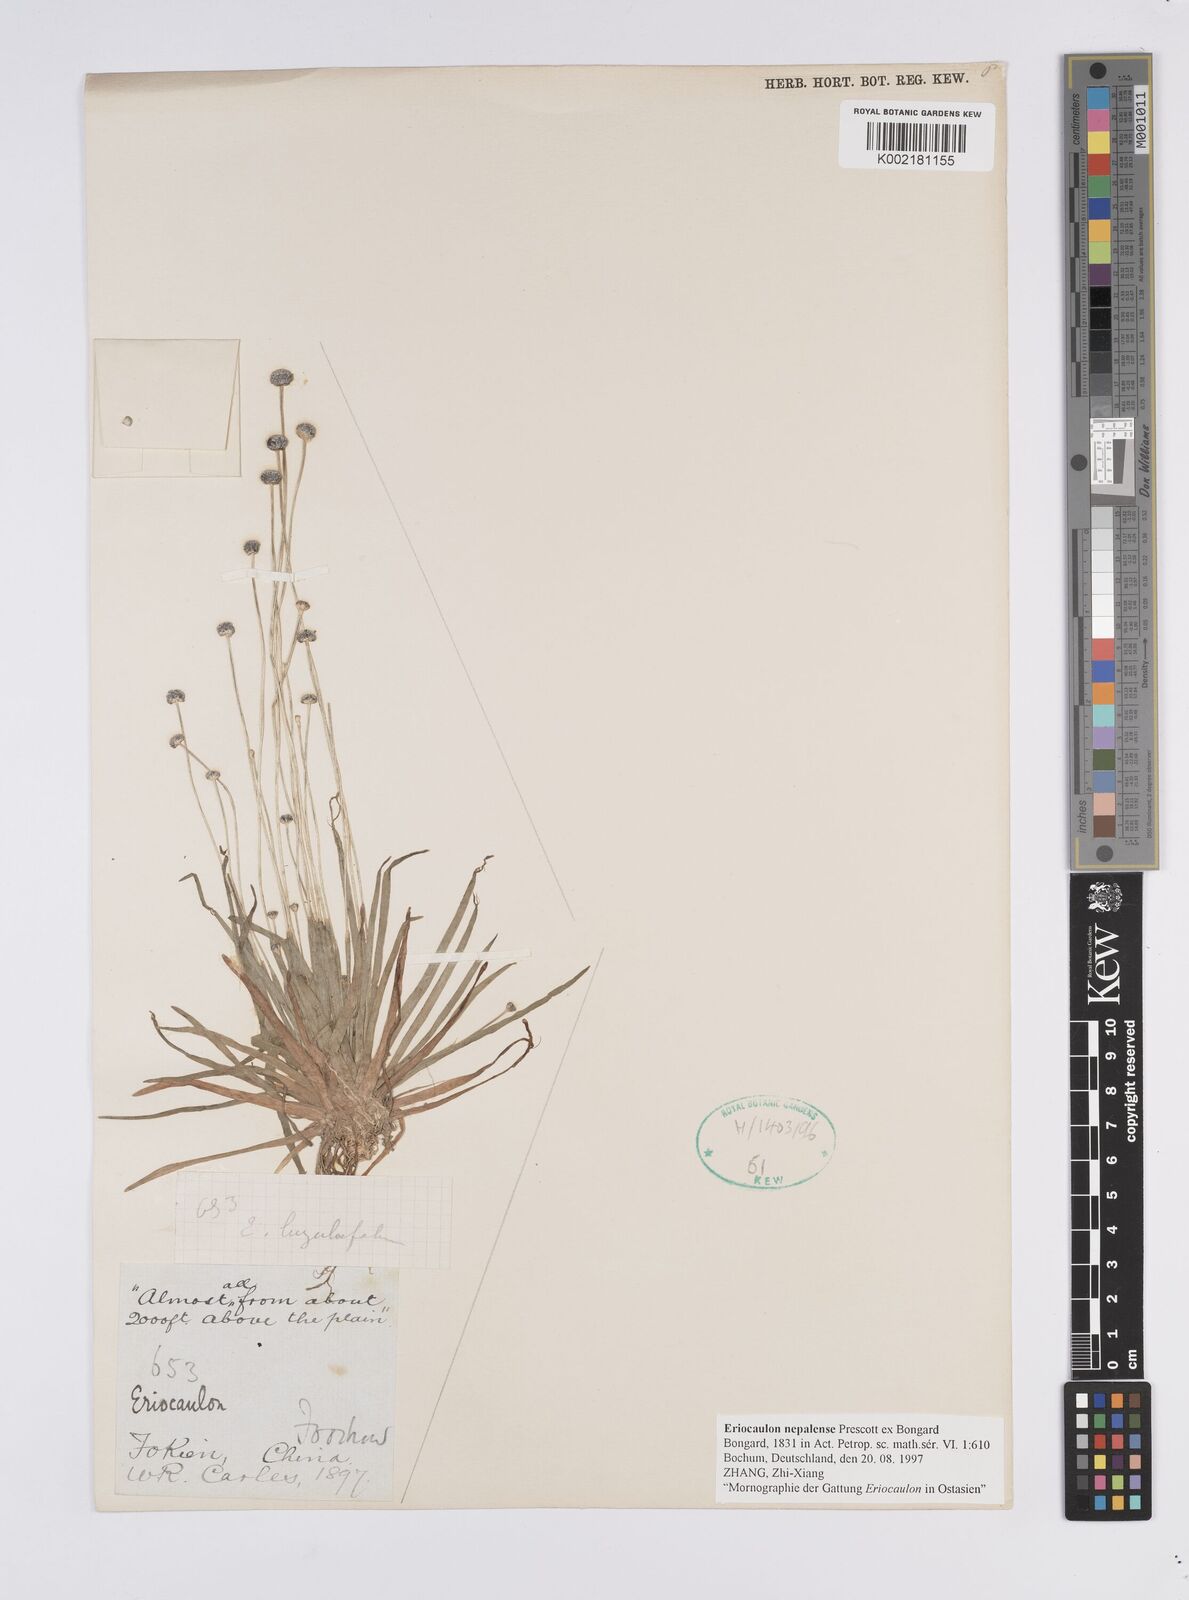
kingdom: Plantae
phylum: Tracheophyta
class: Liliopsida
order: Poales
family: Eriocaulaceae
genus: Eriocaulon
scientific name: Eriocaulon nepalense
